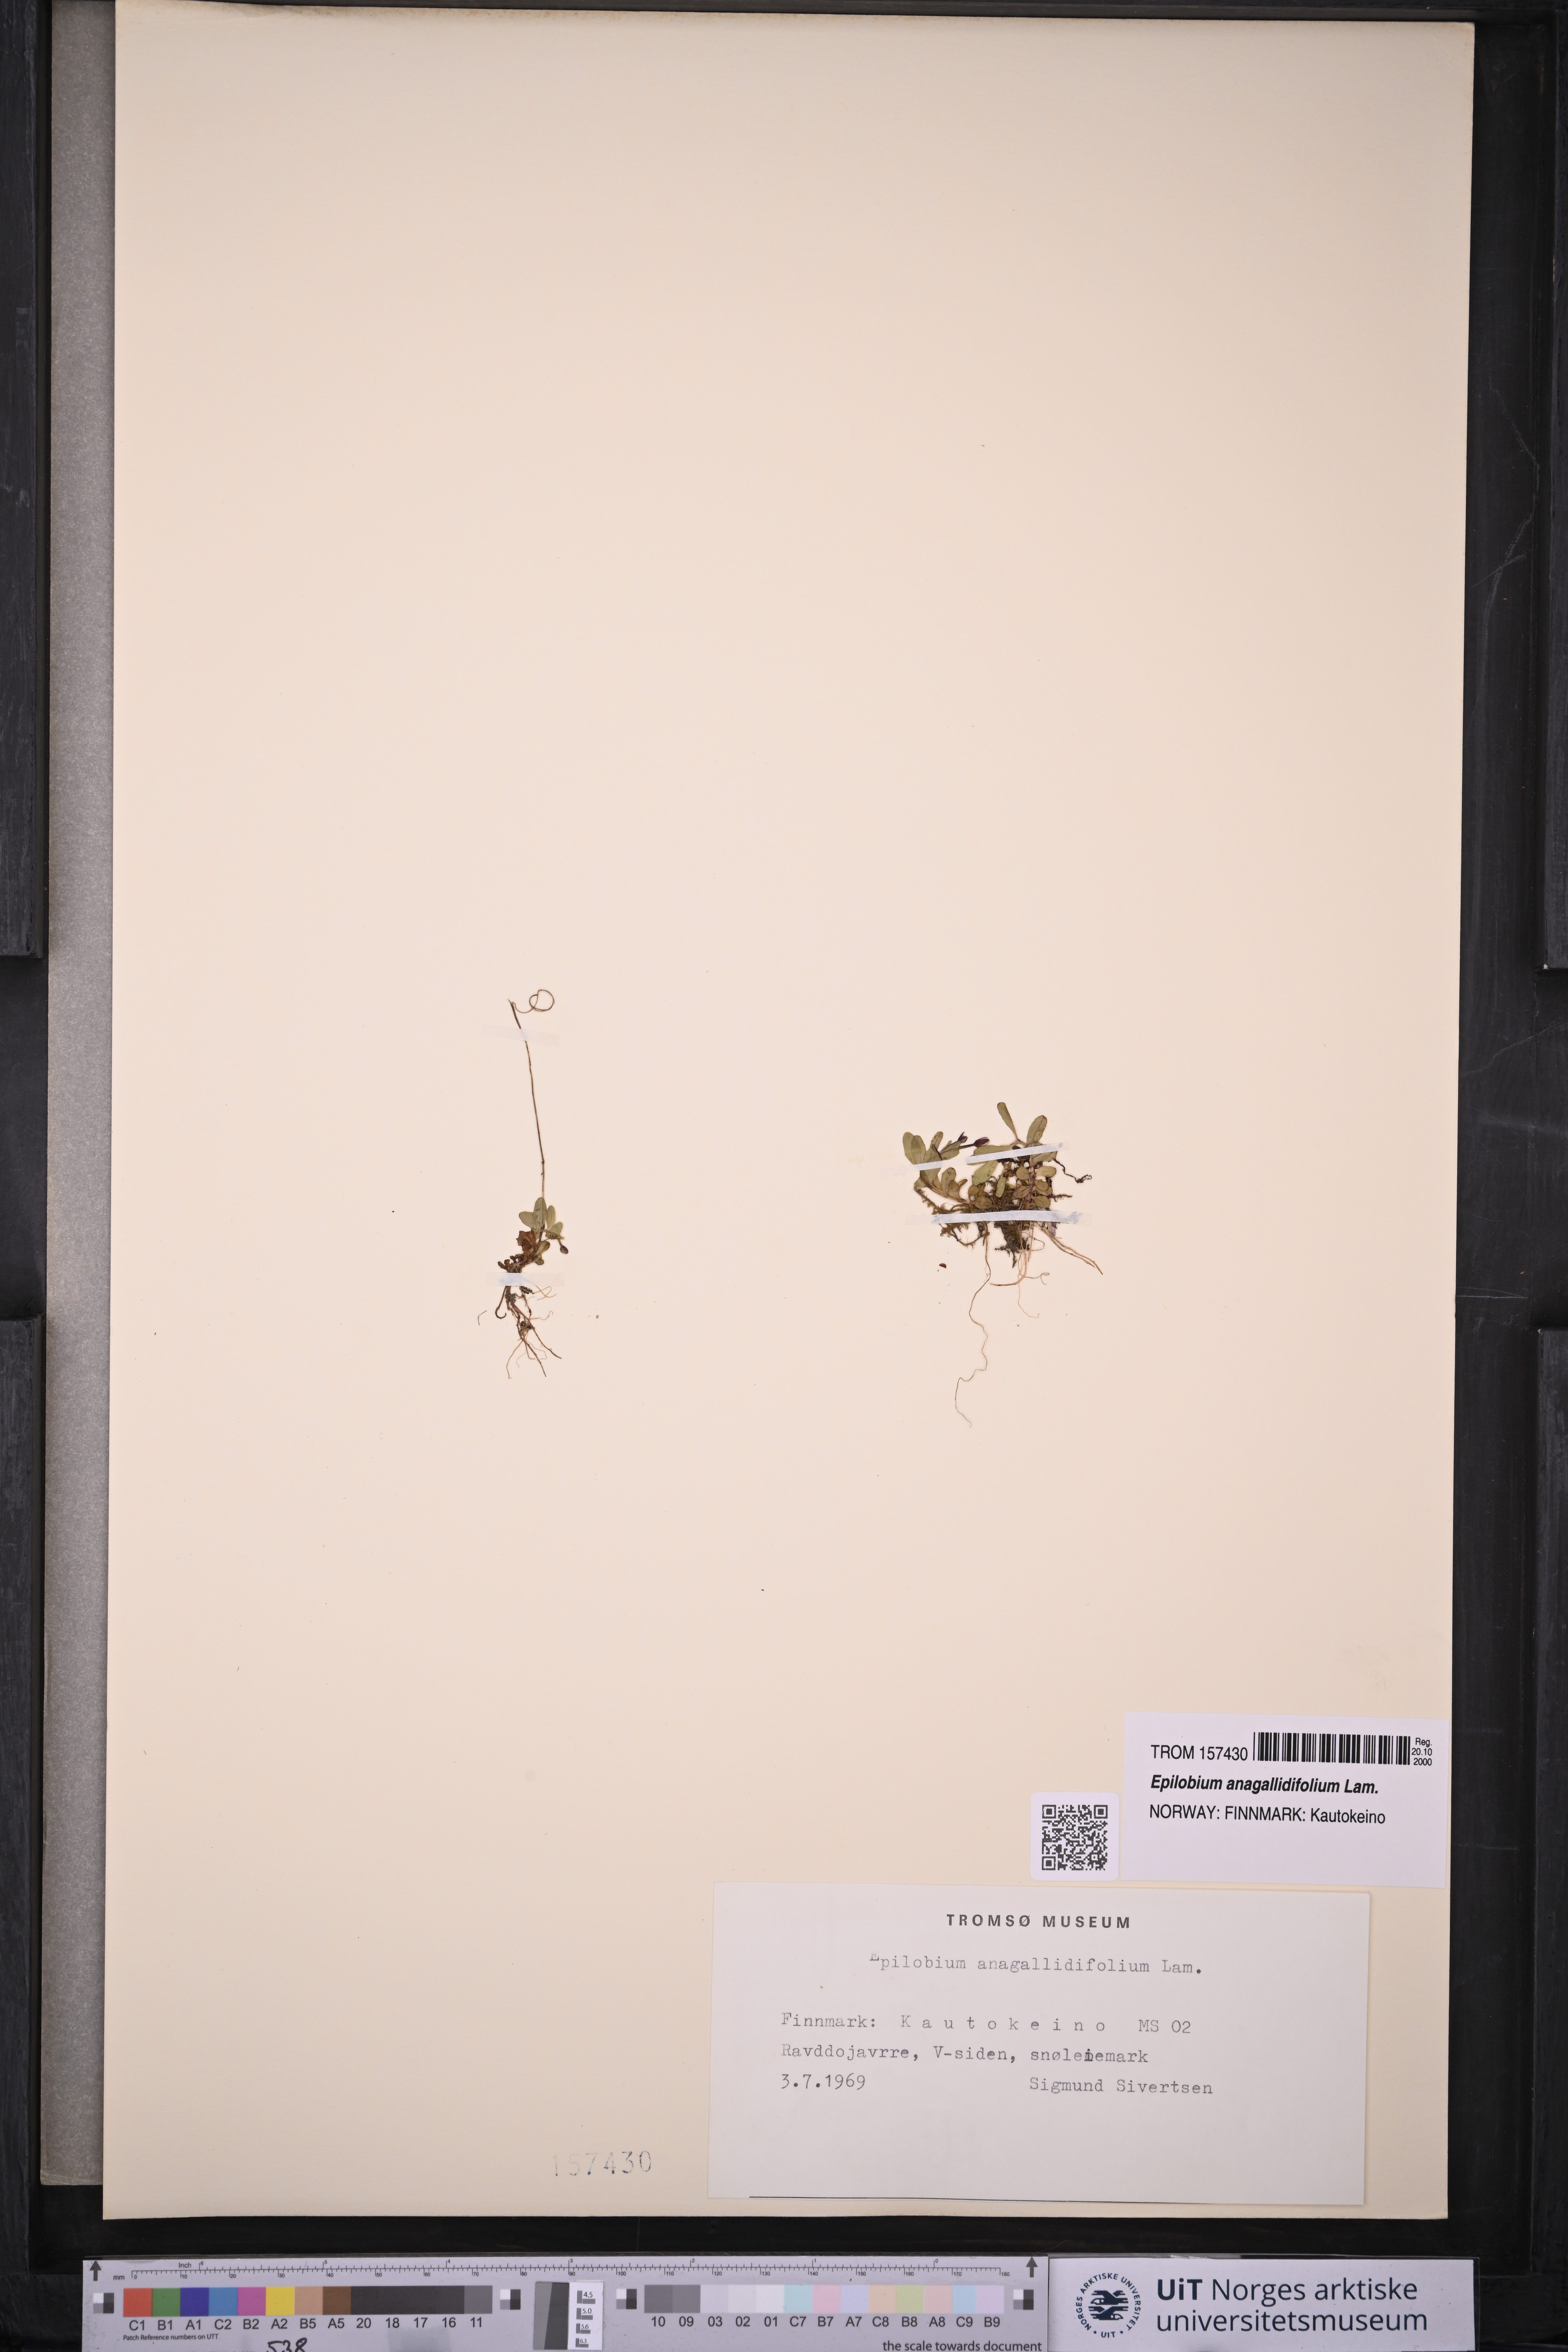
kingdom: Plantae
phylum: Tracheophyta
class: Magnoliopsida
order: Myrtales
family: Onagraceae
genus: Epilobium
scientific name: Epilobium anagallidifolium
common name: Alpine willowherb
